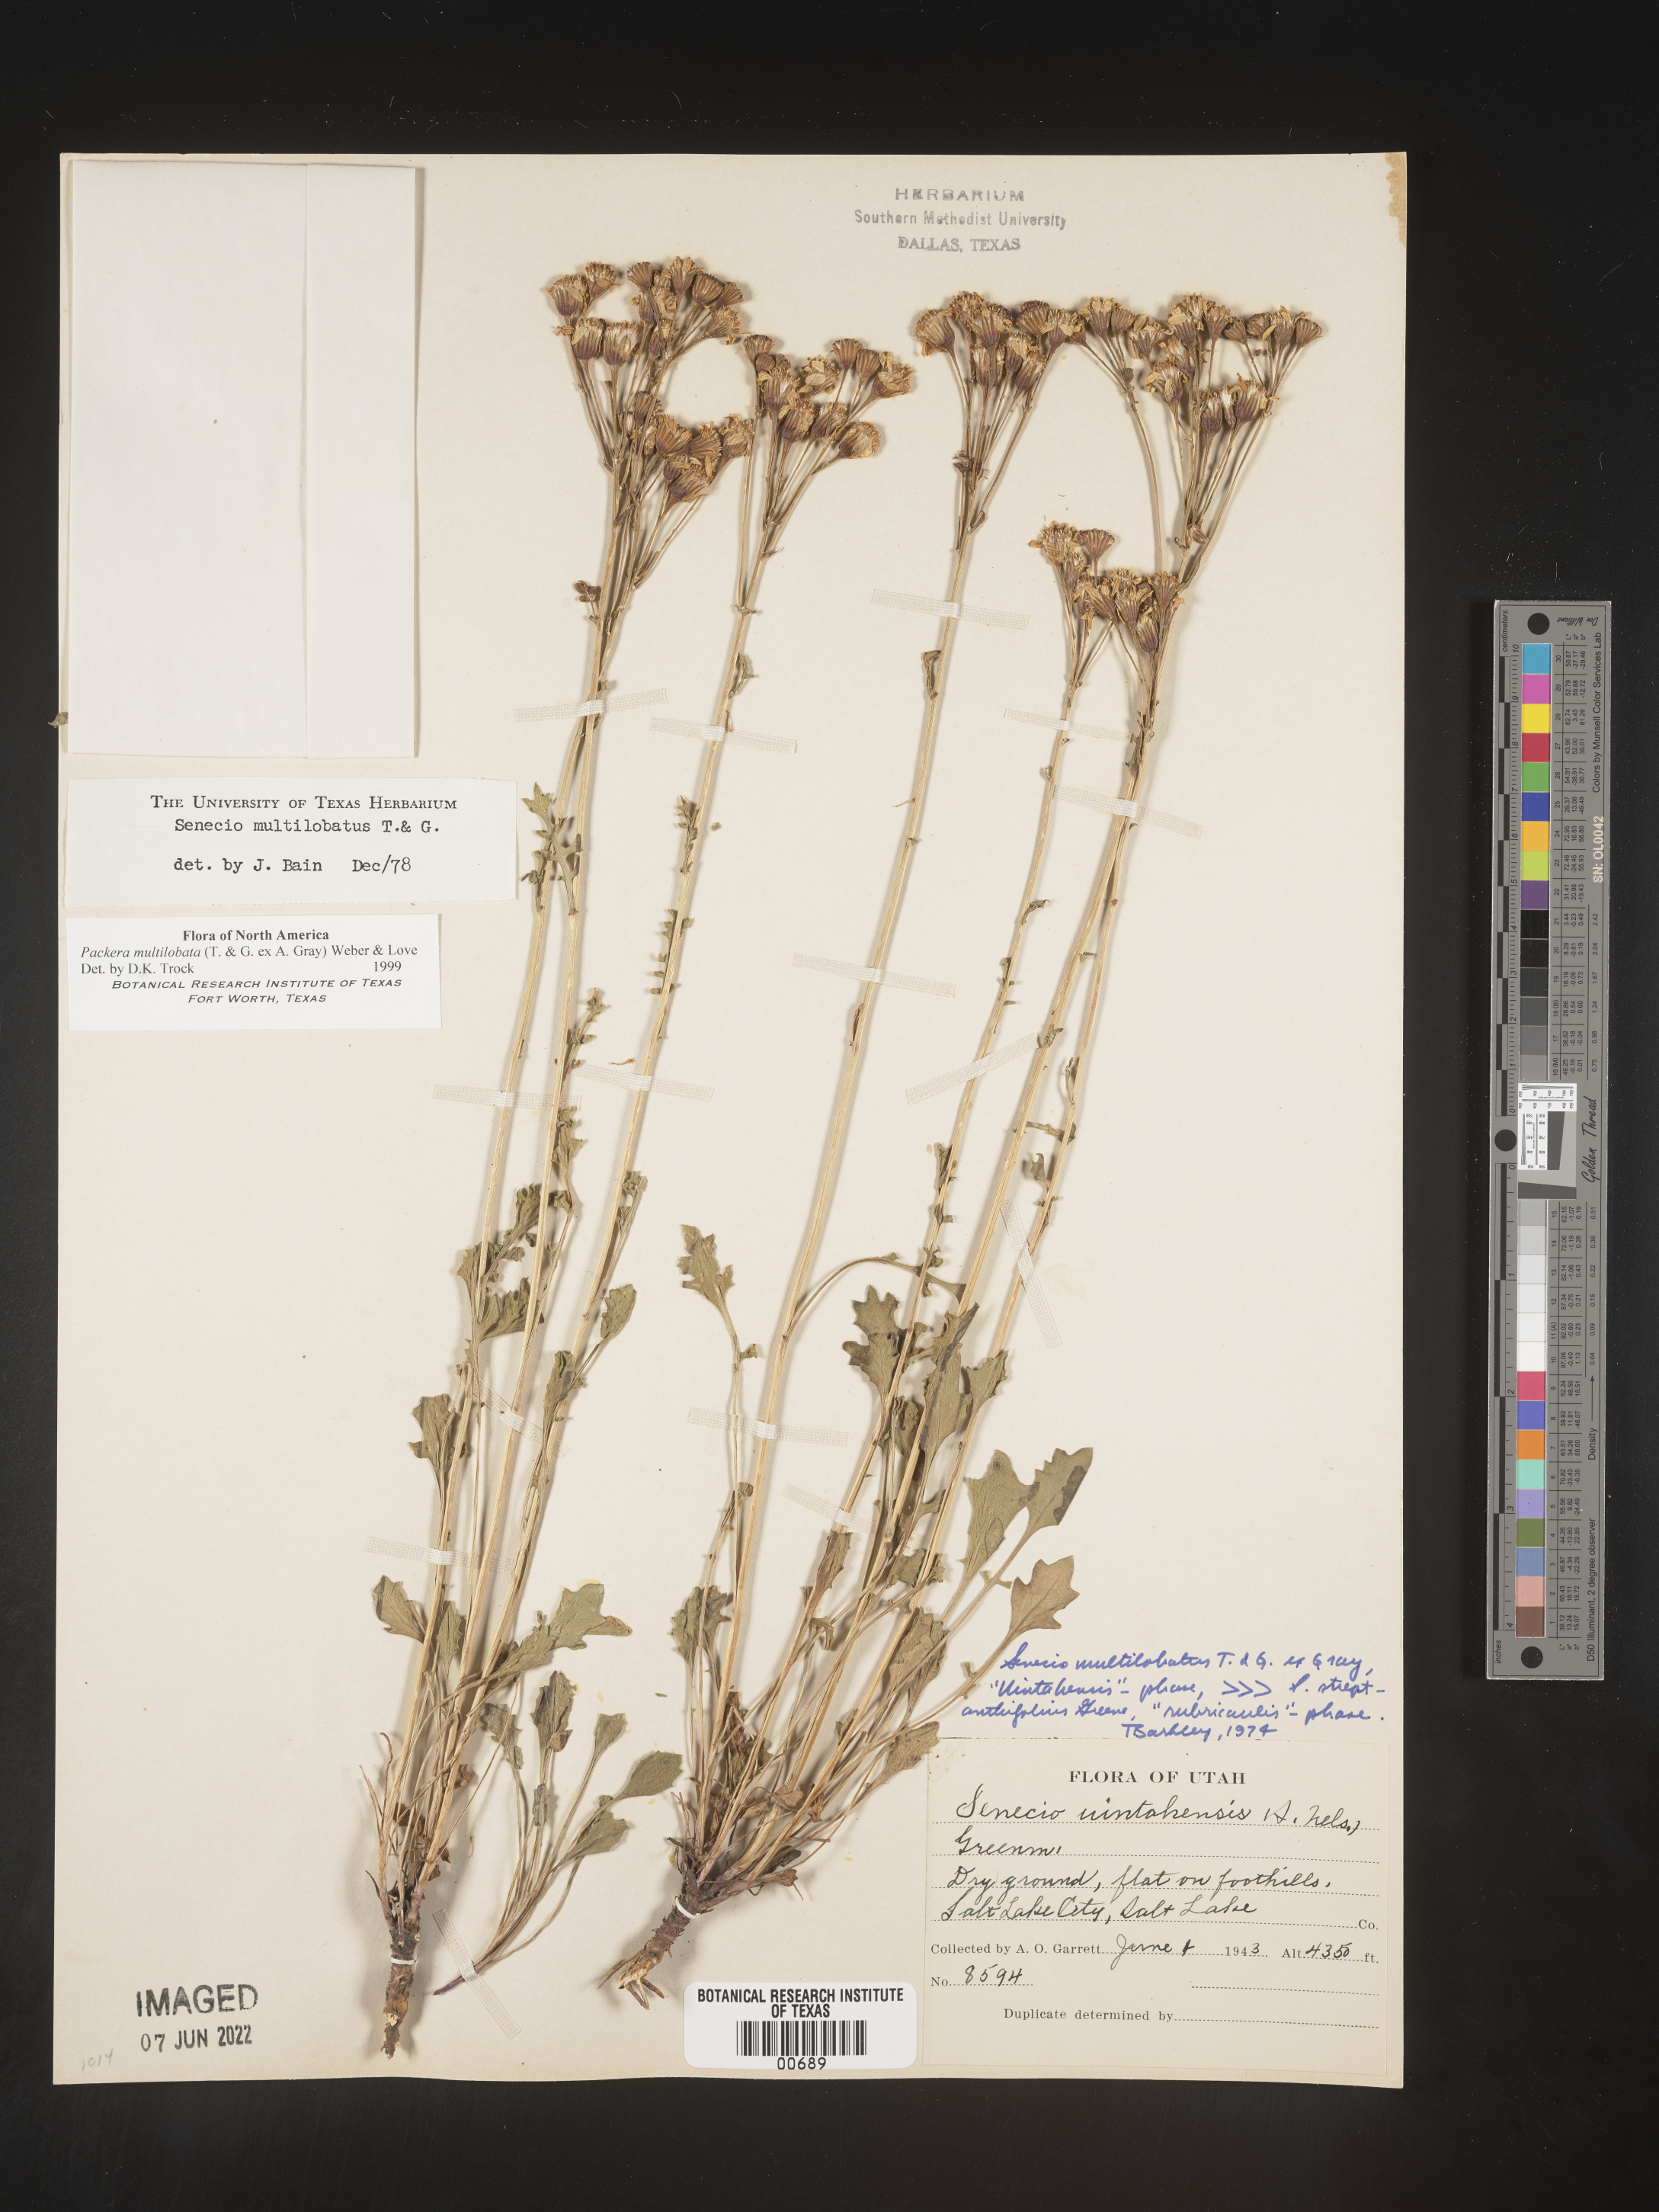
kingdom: Plantae
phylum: Tracheophyta
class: Magnoliopsida
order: Asterales
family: Asteraceae
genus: Packera
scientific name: Packera multilobata
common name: Lobe-leaf groundsel
